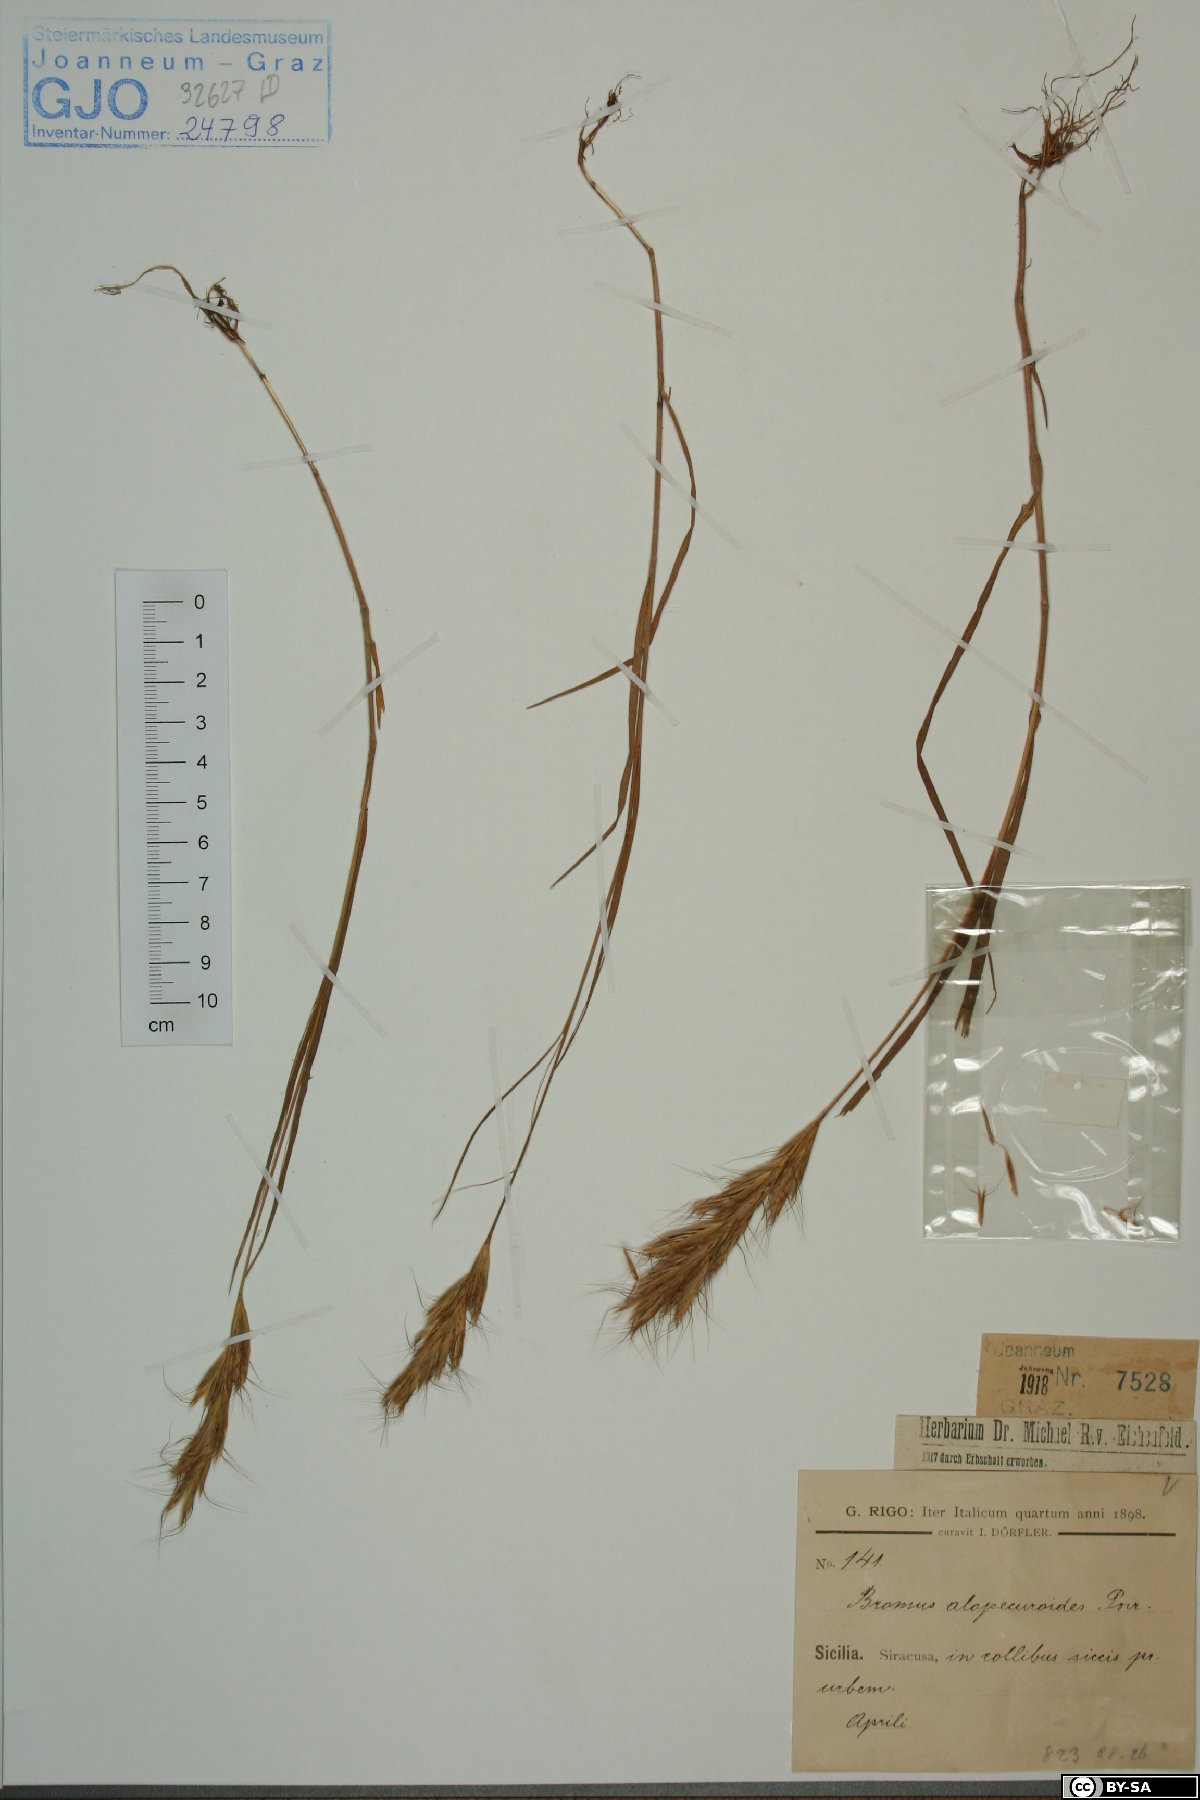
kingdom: Plantae
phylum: Tracheophyta
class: Liliopsida
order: Poales
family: Poaceae
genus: Bromus
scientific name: Bromus alopecuros
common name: Weedy brome
